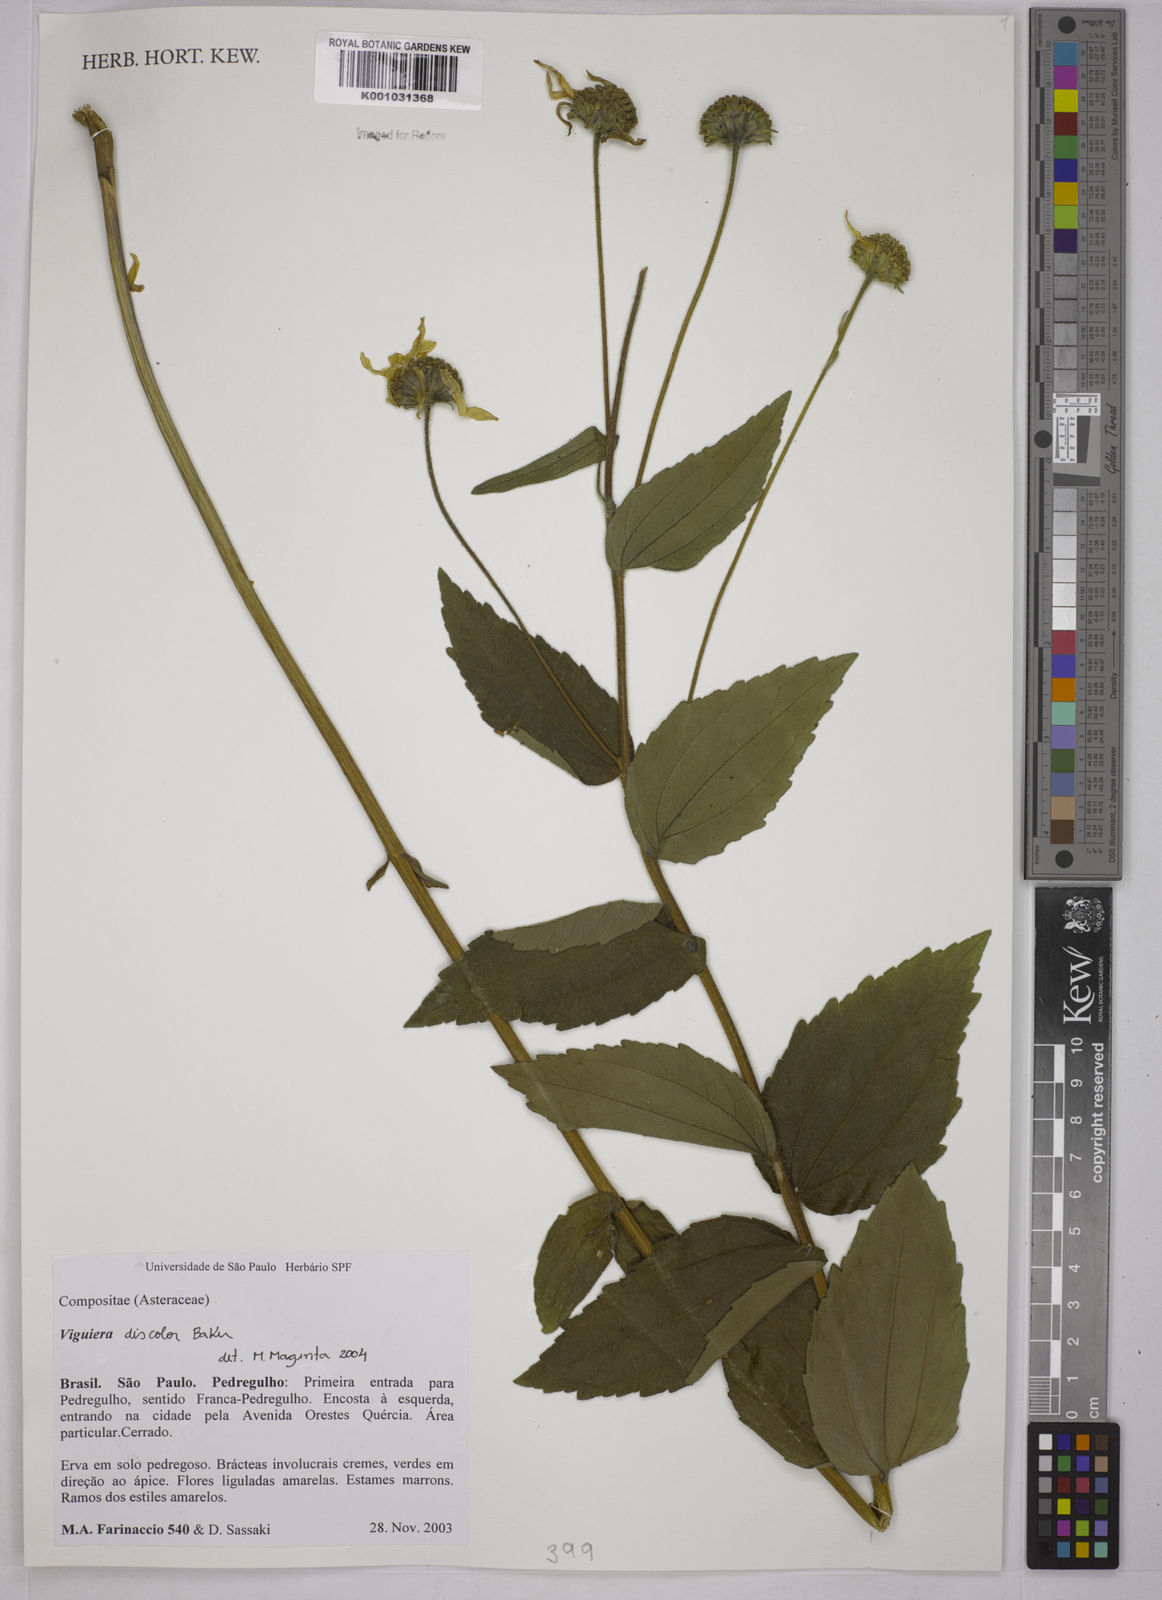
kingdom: Plantae
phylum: Tracheophyta
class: Magnoliopsida
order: Asterales
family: Asteraceae
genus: Aldama
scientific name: Aldama discolor
